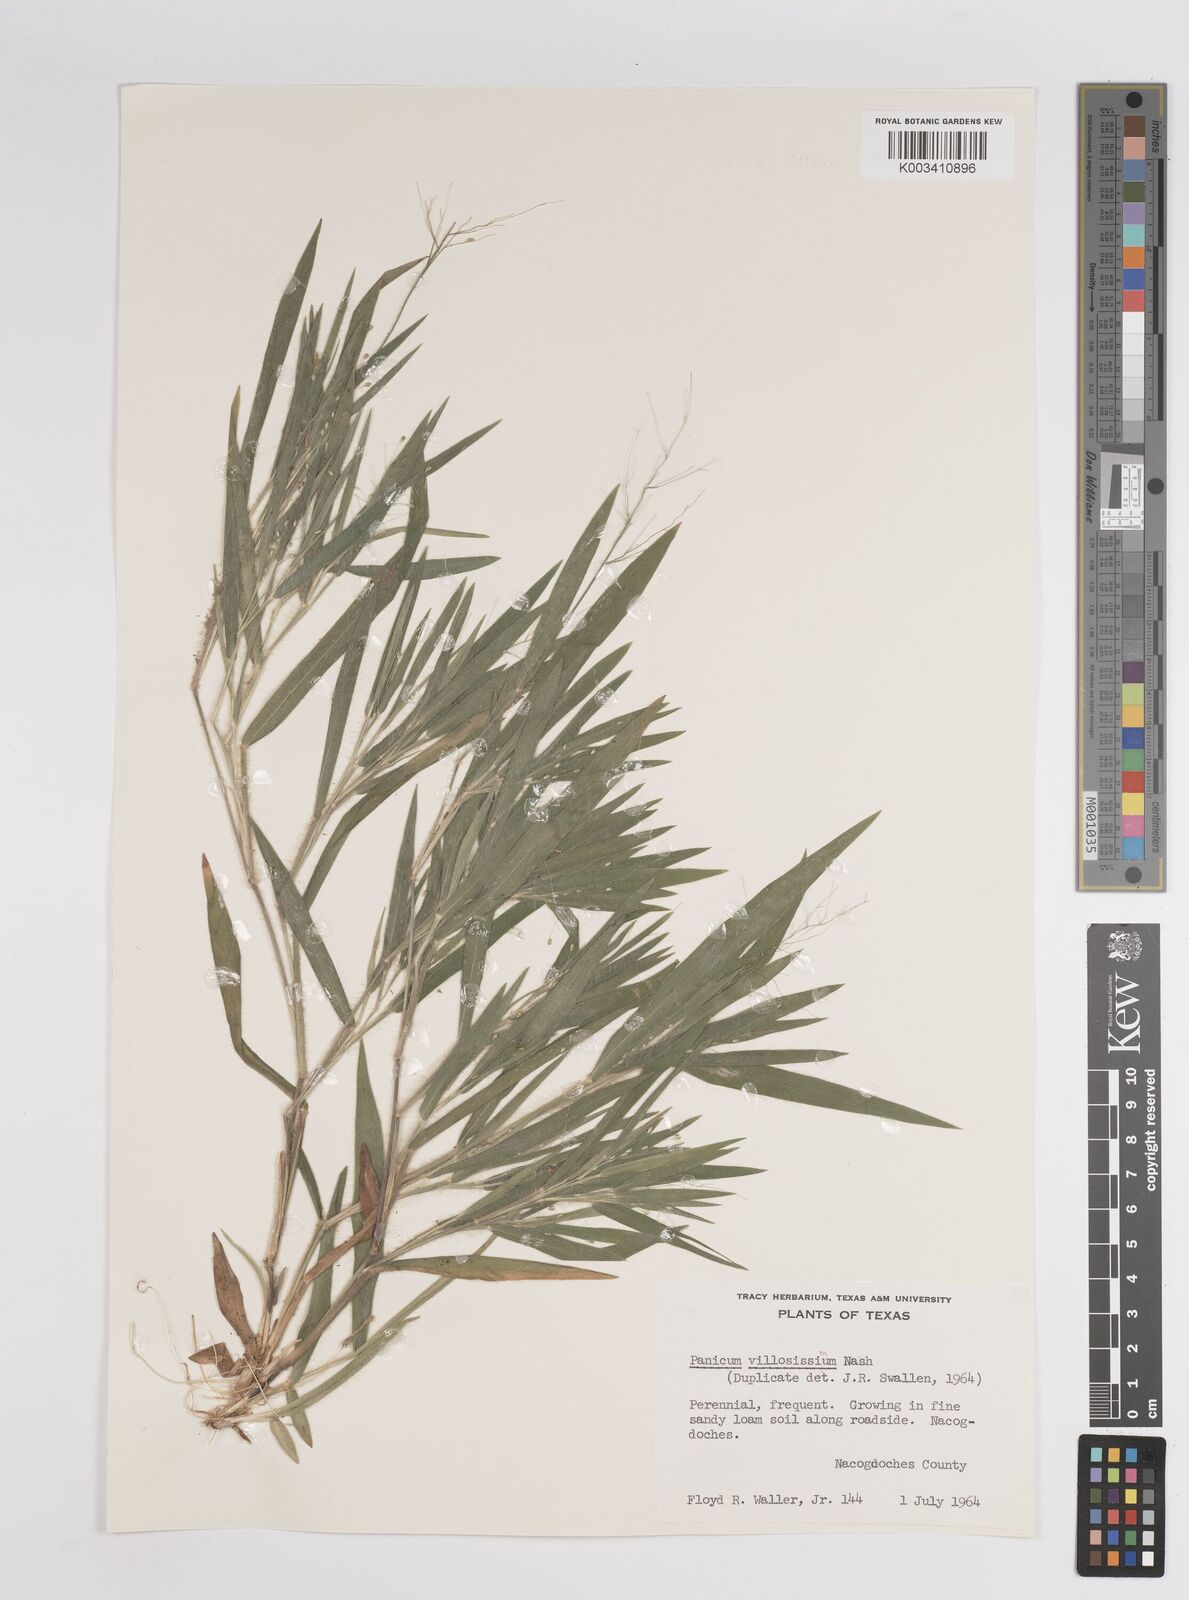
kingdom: Plantae
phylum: Tracheophyta
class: Liliopsida
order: Poales
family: Poaceae
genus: Dichanthelium
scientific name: Dichanthelium villosissimum
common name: White-haired panicgrass
